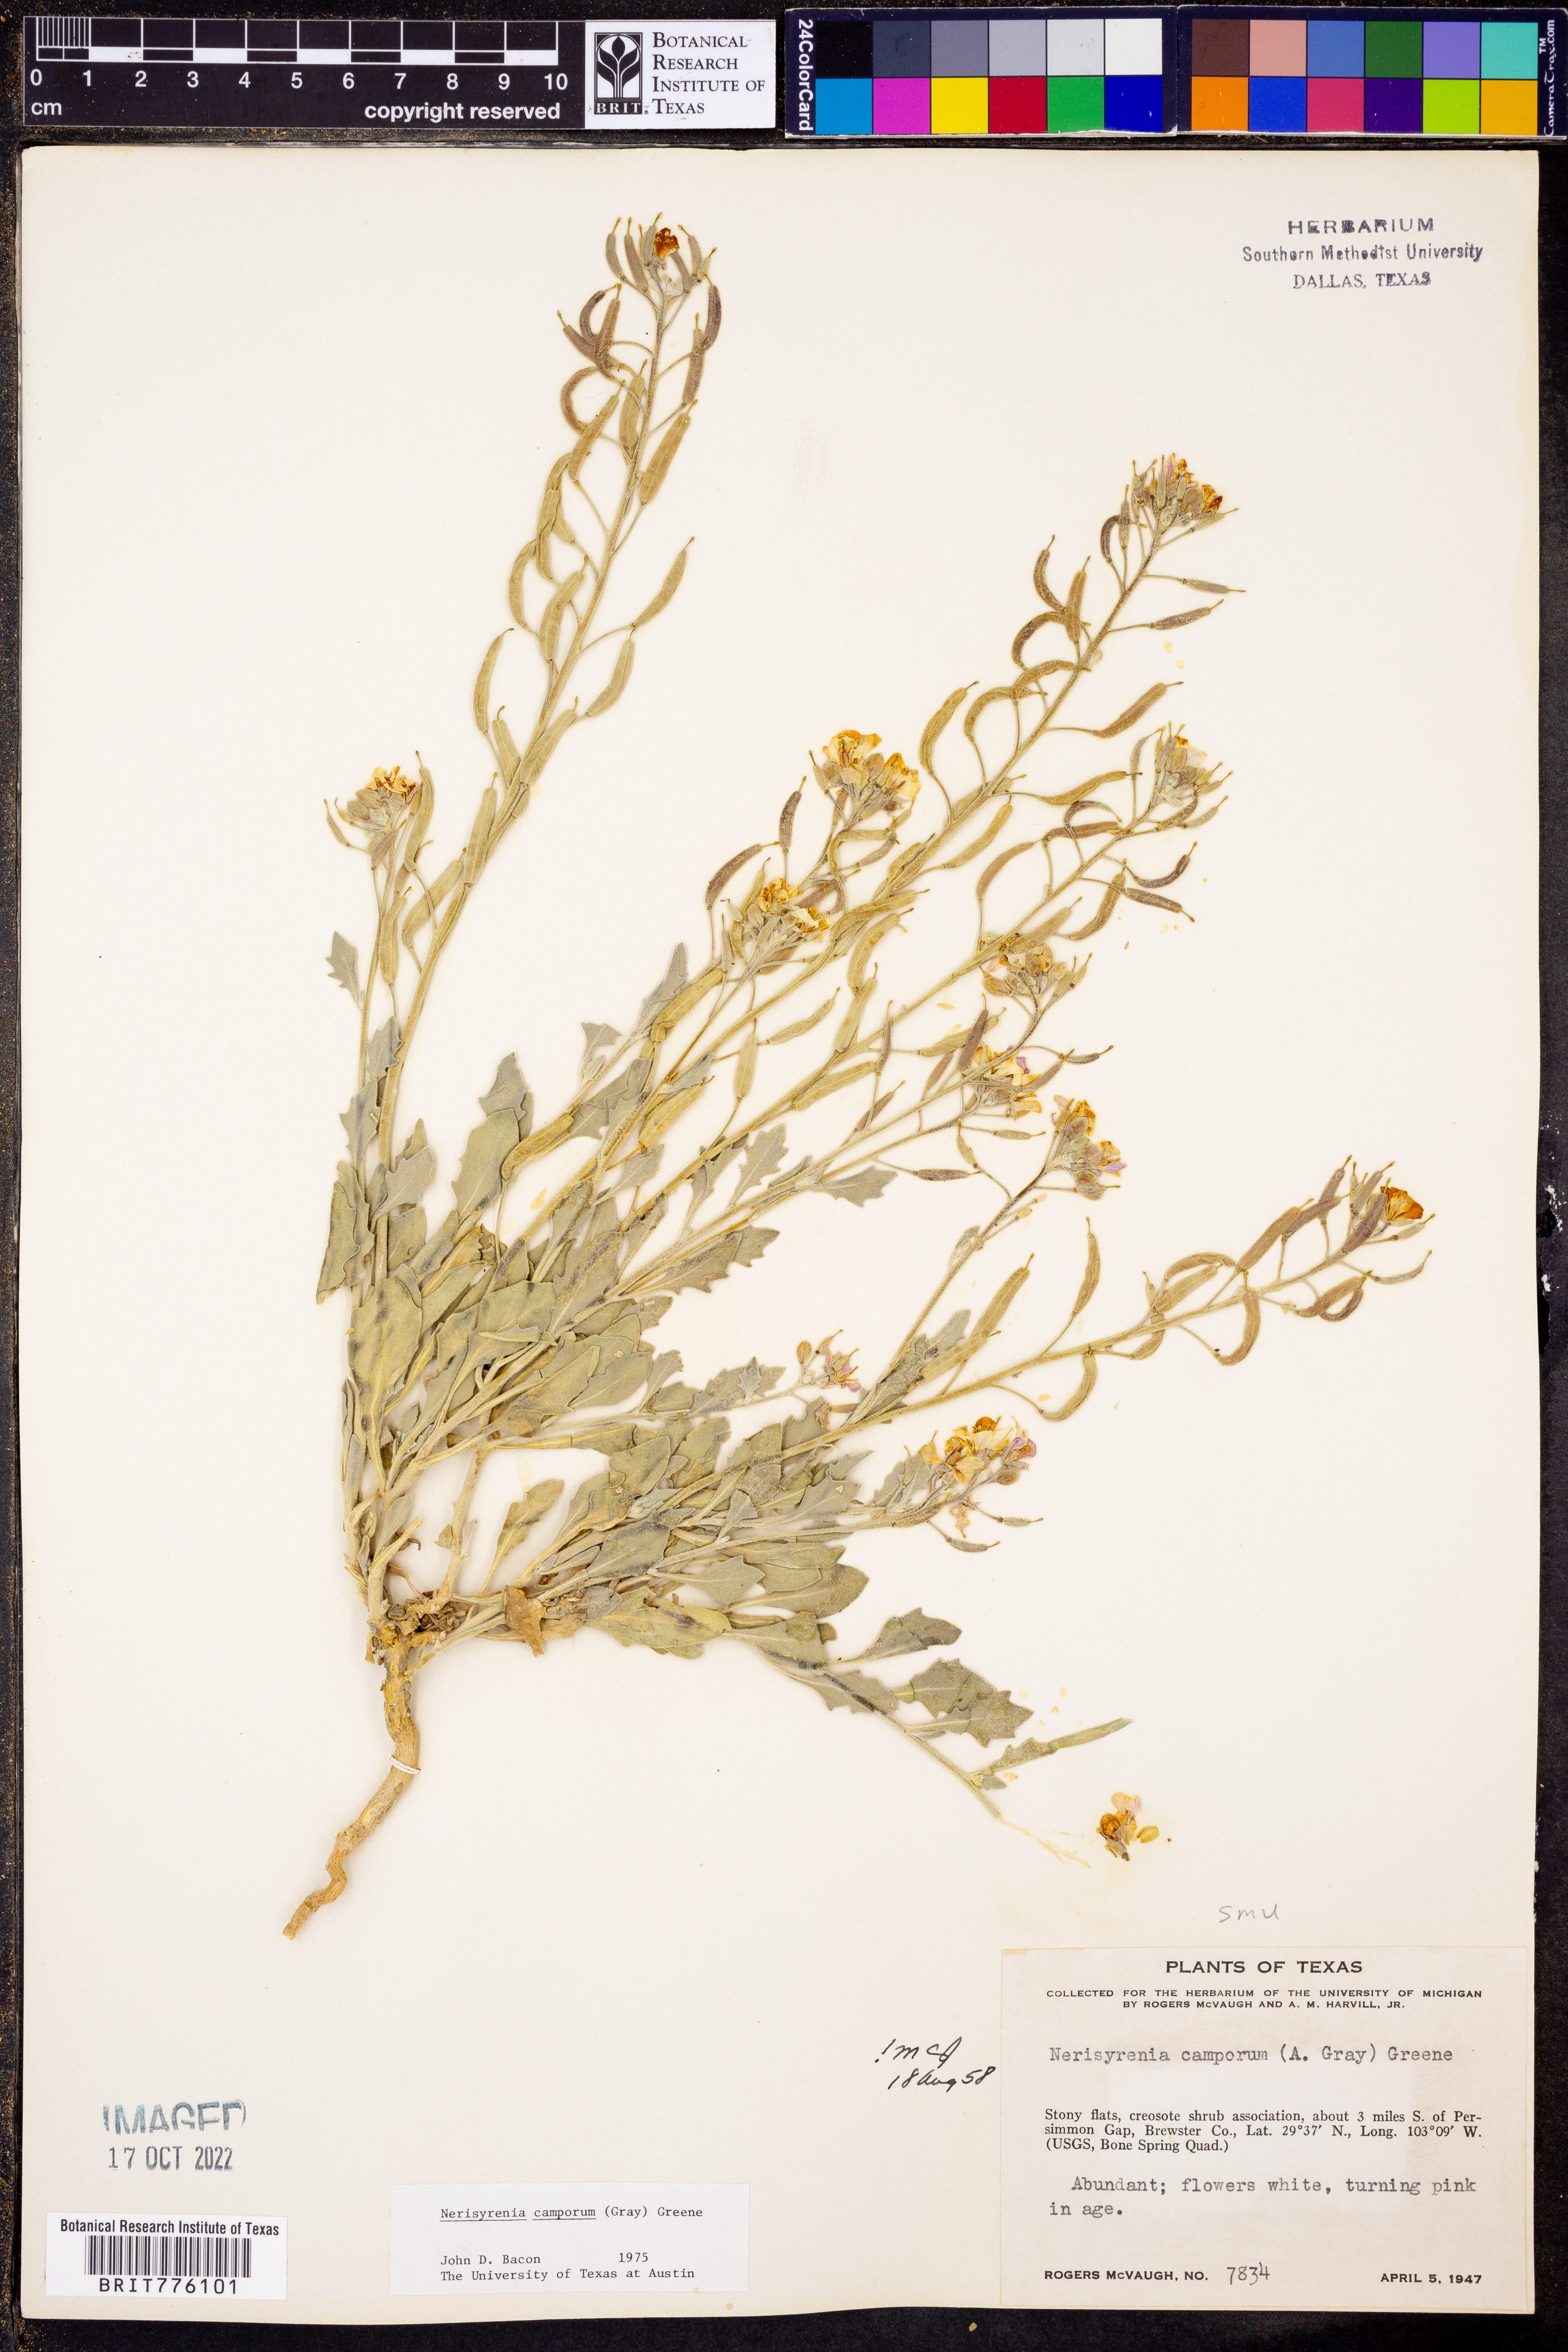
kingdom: Plantae
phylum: Tracheophyta
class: Magnoliopsida
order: Brassicales
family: Brassicaceae
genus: Nerisyrenia
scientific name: Nerisyrenia camporum
